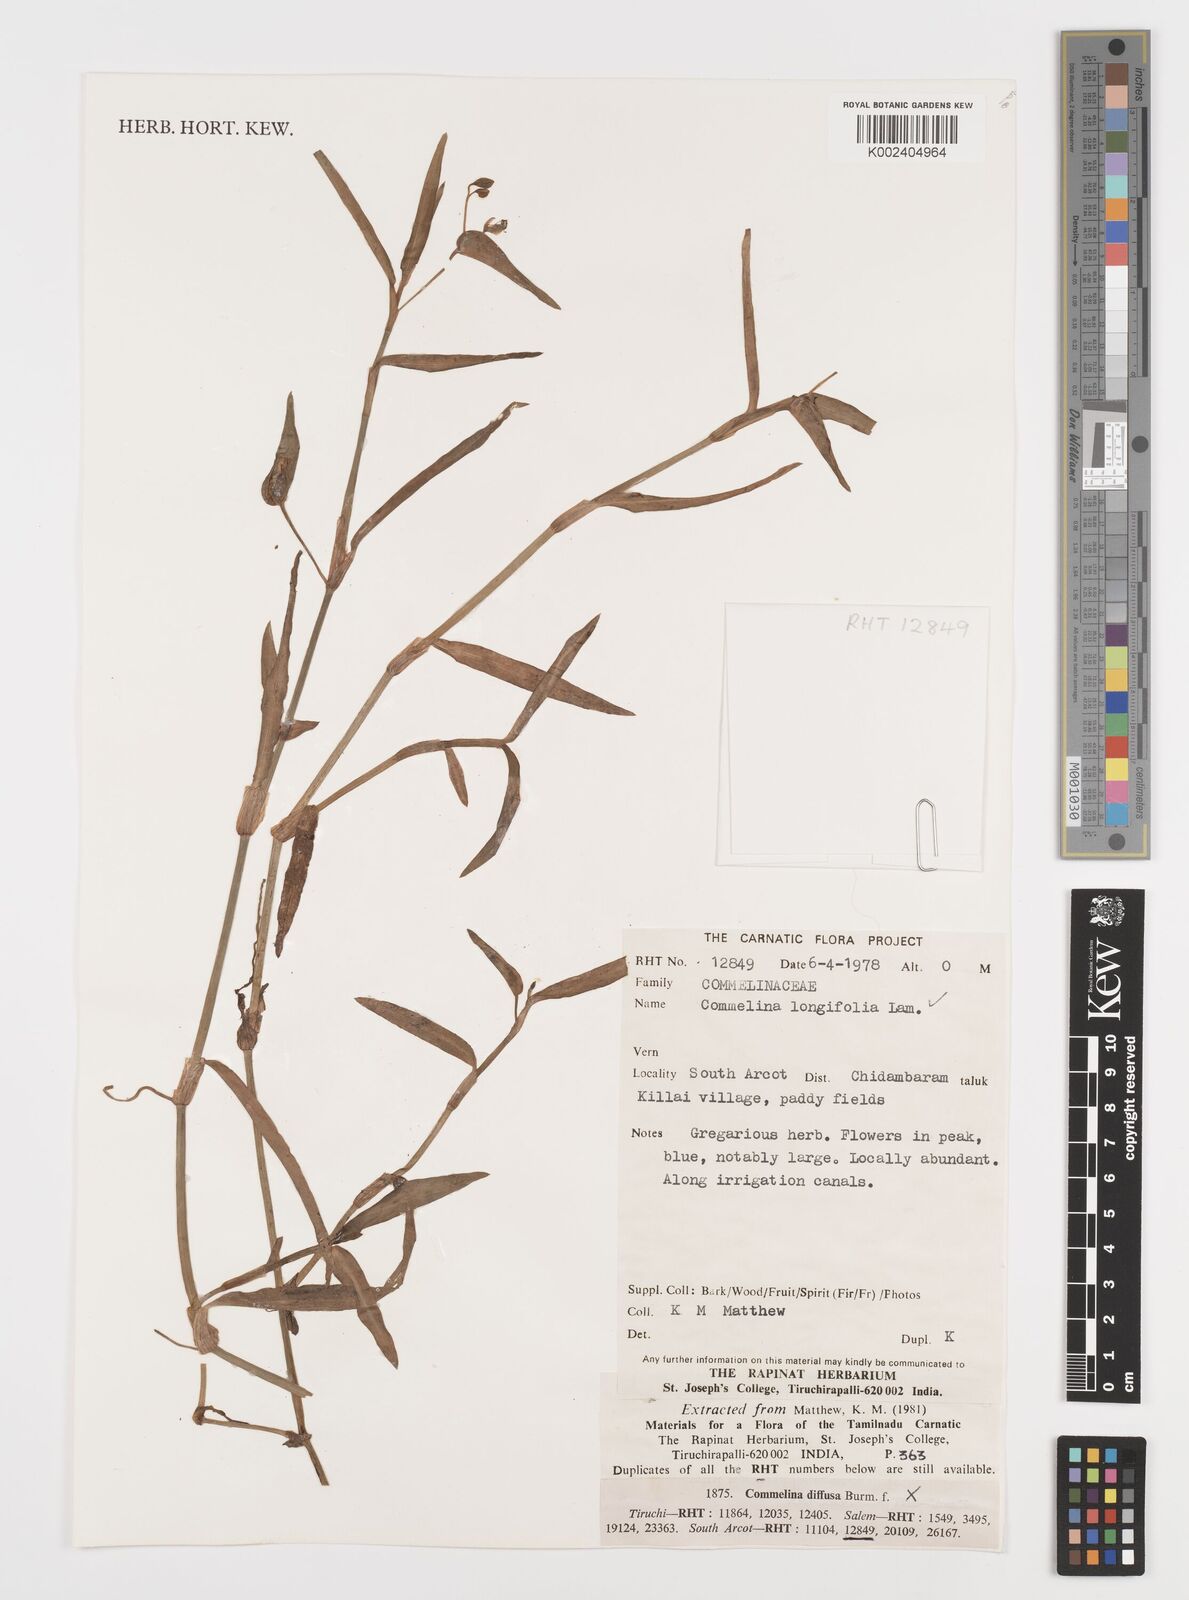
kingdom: Plantae
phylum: Tracheophyta
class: Liliopsida
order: Commelinales
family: Commelinaceae
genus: Commelina
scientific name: Commelina undulata
